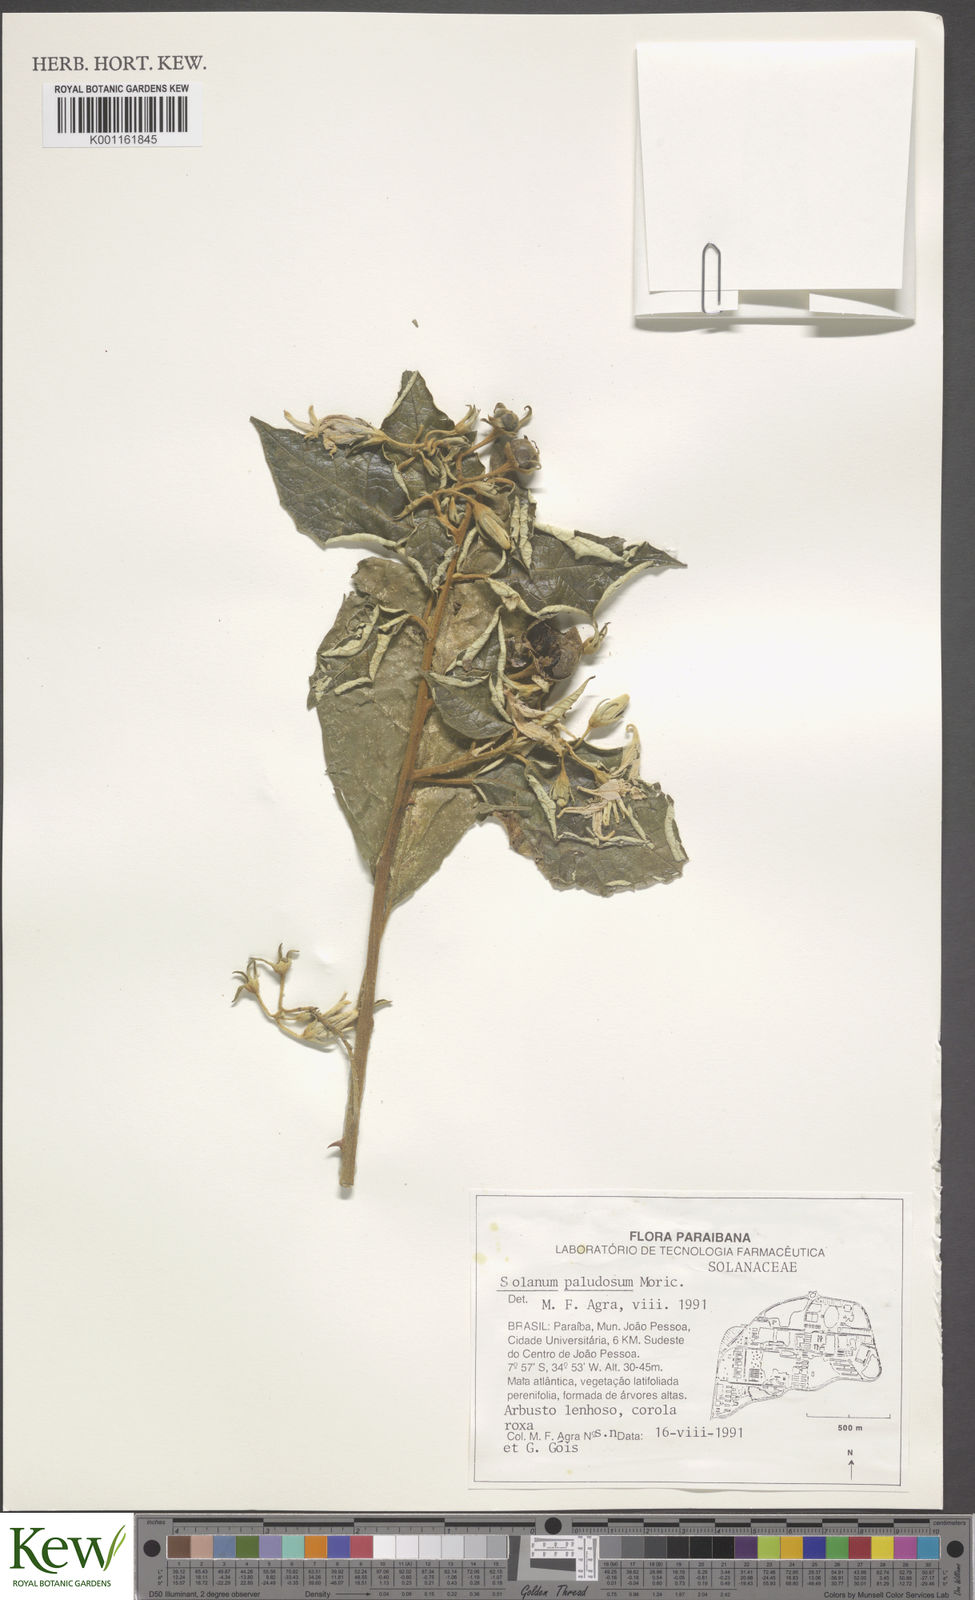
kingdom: Plantae
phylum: Tracheophyta
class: Magnoliopsida
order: Solanales
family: Solanaceae
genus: Solanum
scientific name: Solanum paludosum
